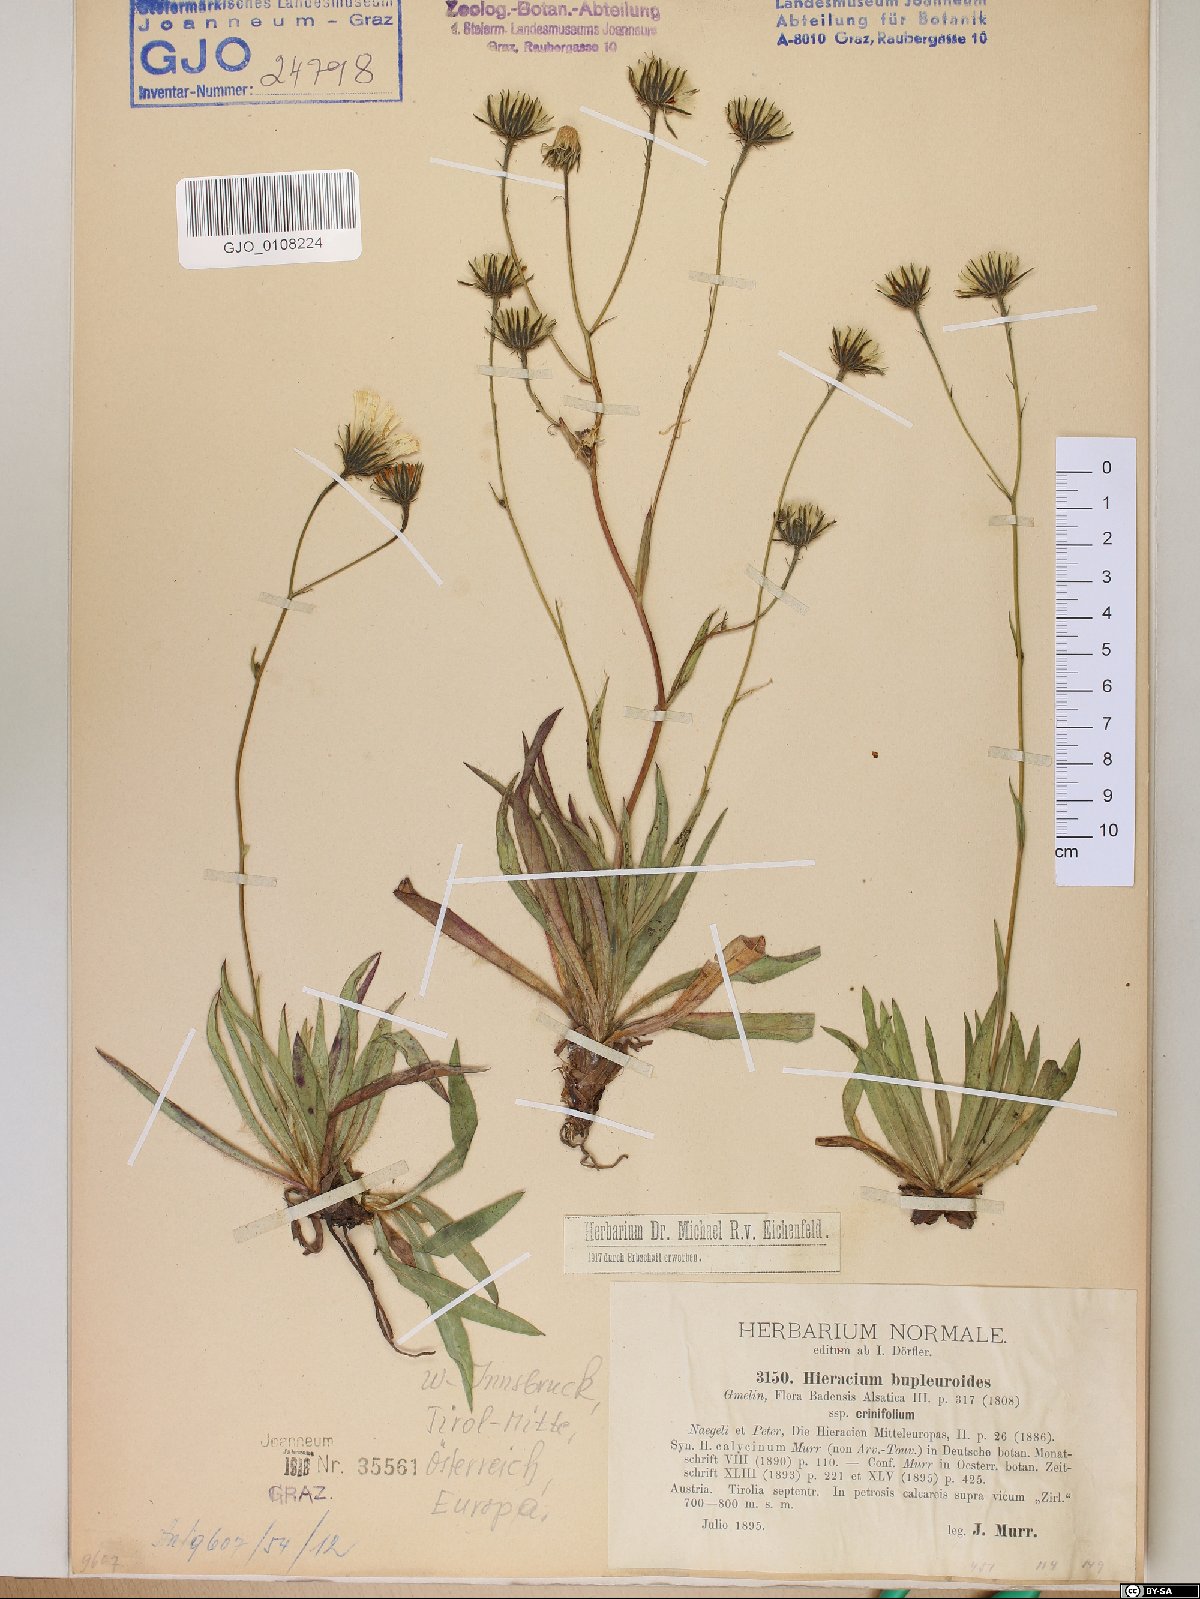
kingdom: Plantae
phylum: Tracheophyta
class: Magnoliopsida
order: Asterales
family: Asteraceae
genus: Hieracium
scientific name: Hieracium crinifolium
